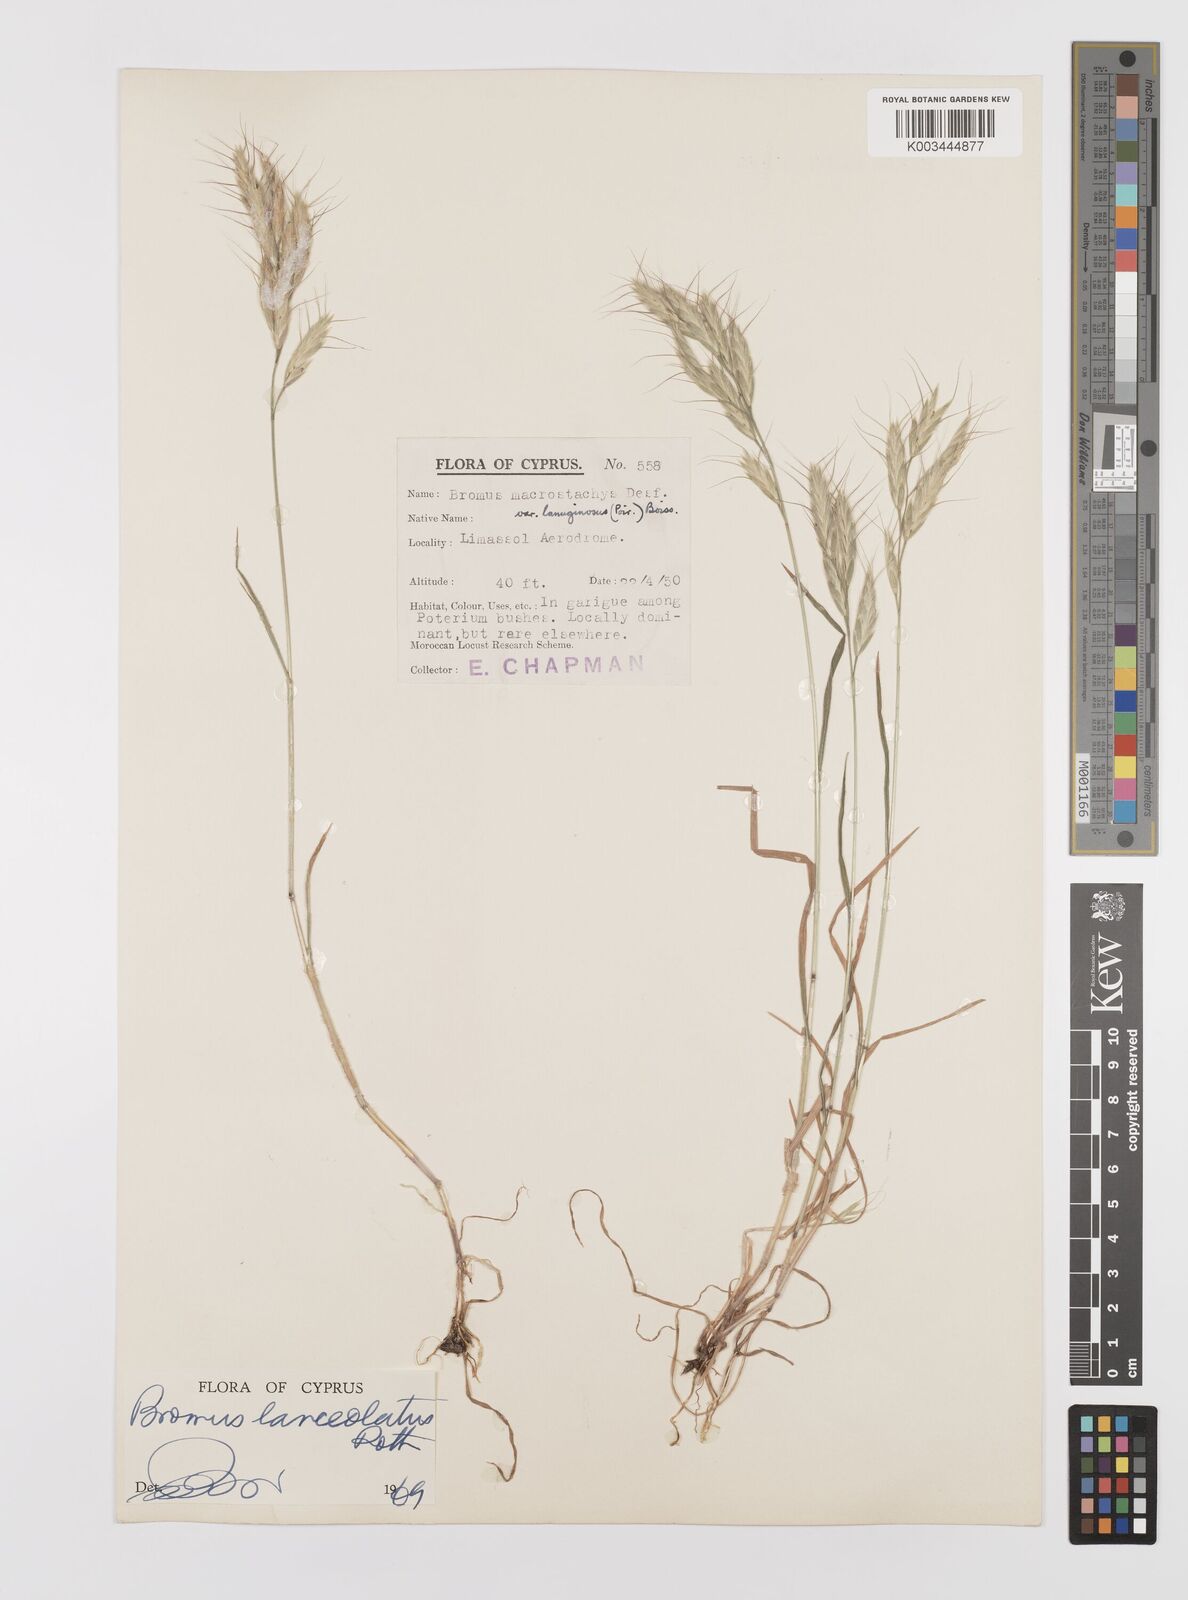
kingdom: Plantae
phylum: Tracheophyta
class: Liliopsida
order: Poales
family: Poaceae
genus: Bromus
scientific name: Bromus lanceolatus
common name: Mediterranean brome
